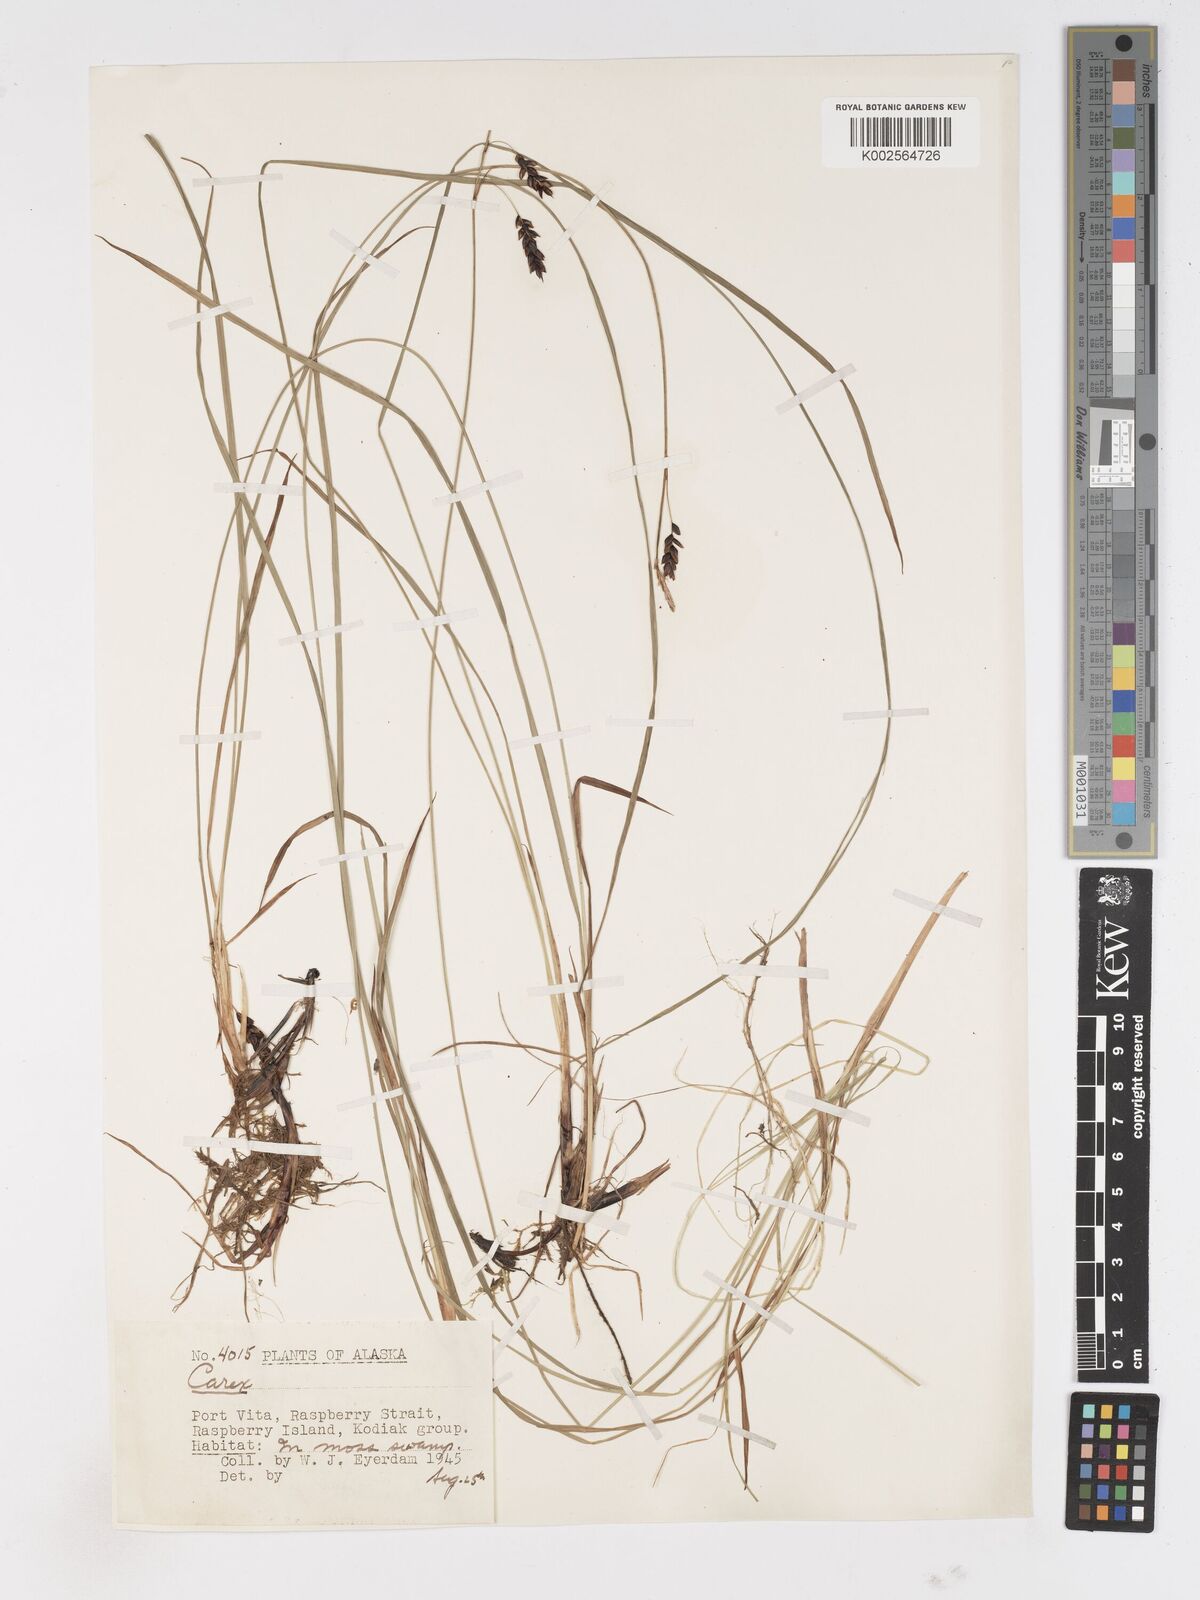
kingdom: Plantae
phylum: Tracheophyta
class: Liliopsida
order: Poales
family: Cyperaceae
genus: Carex
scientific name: Carex
